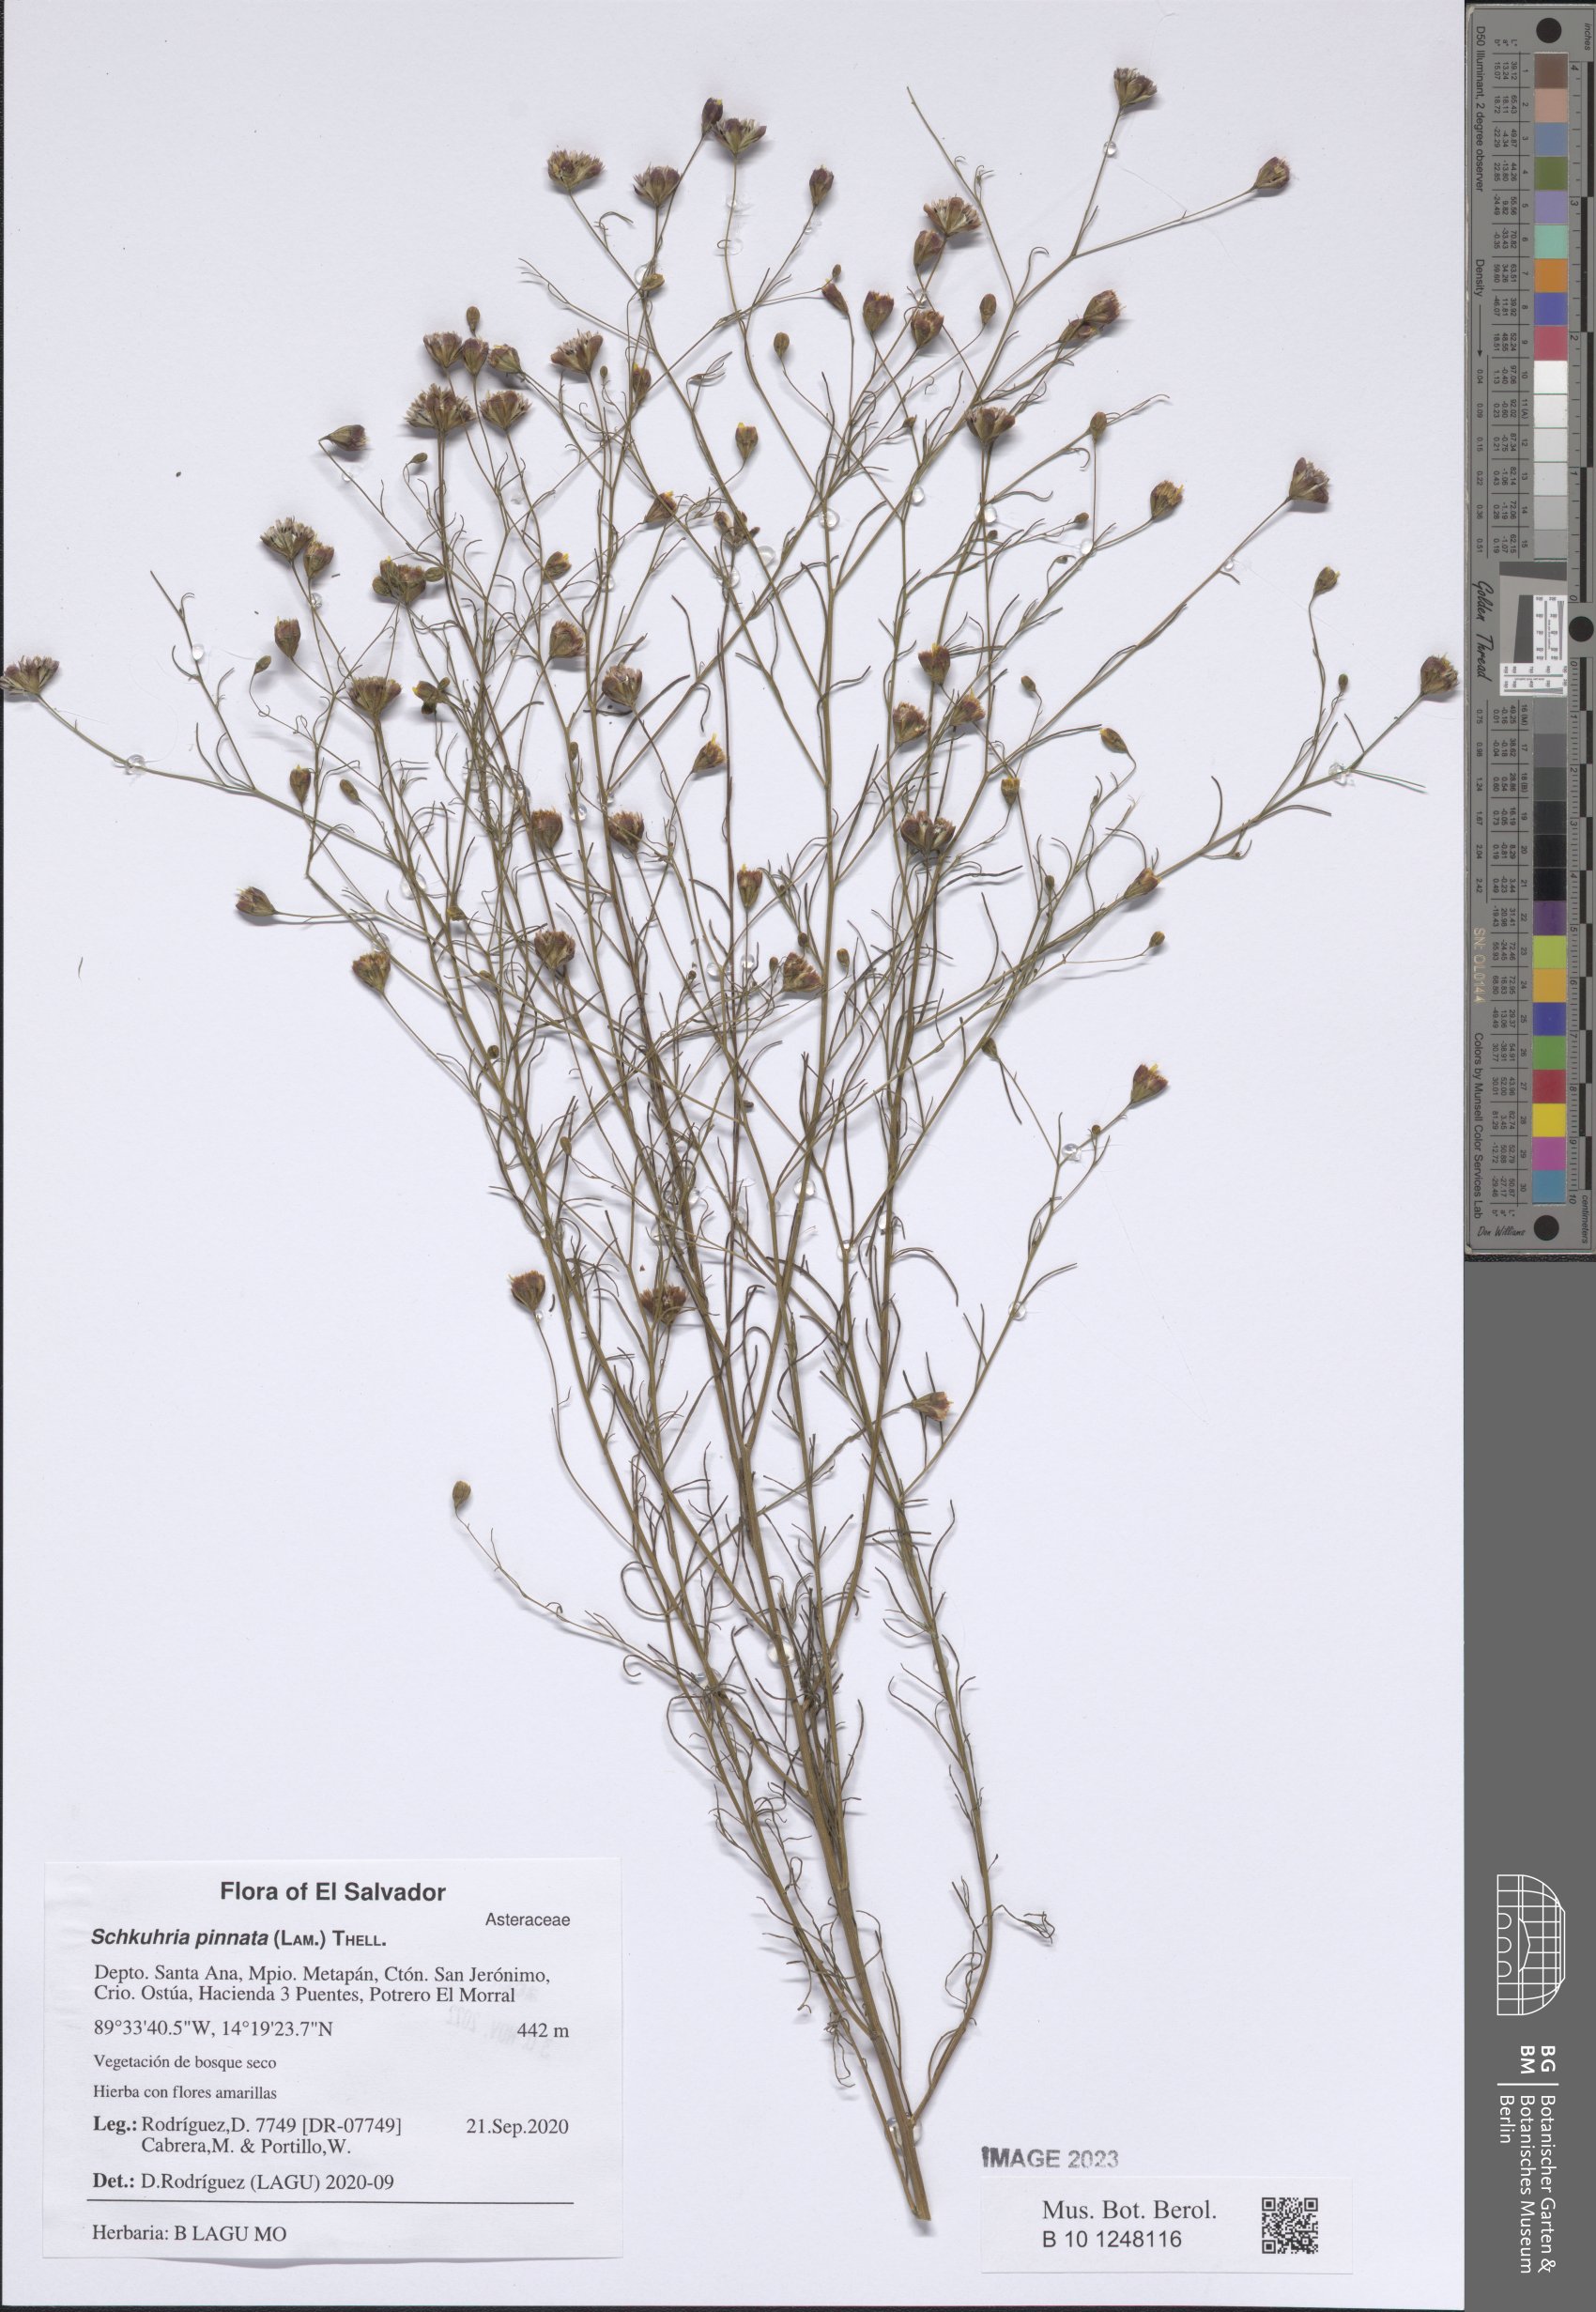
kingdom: Plantae
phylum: Tracheophyta
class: Magnoliopsida
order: Asterales
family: Asteraceae
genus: Schkuhria
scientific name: Schkuhria pinnata
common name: Dwarf marigold
